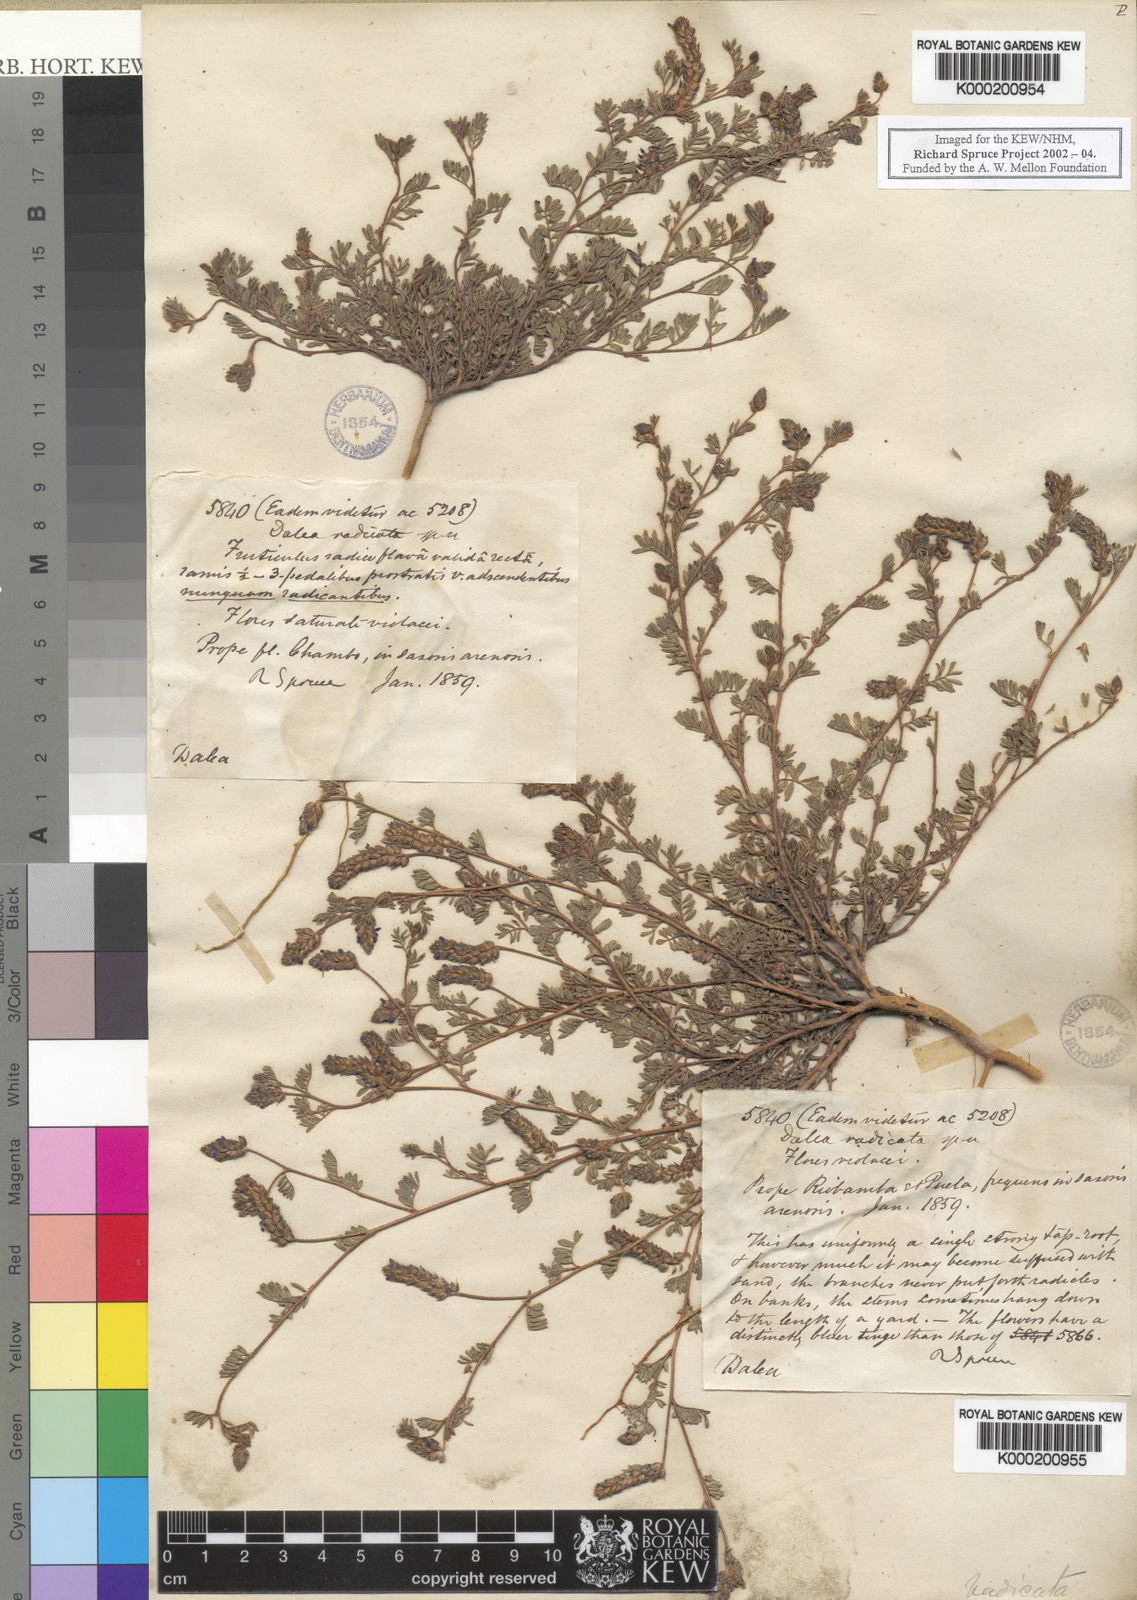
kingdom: Plantae
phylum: Tracheophyta
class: Magnoliopsida
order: Fabales
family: Fabaceae
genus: Dalea
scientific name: Dalea
